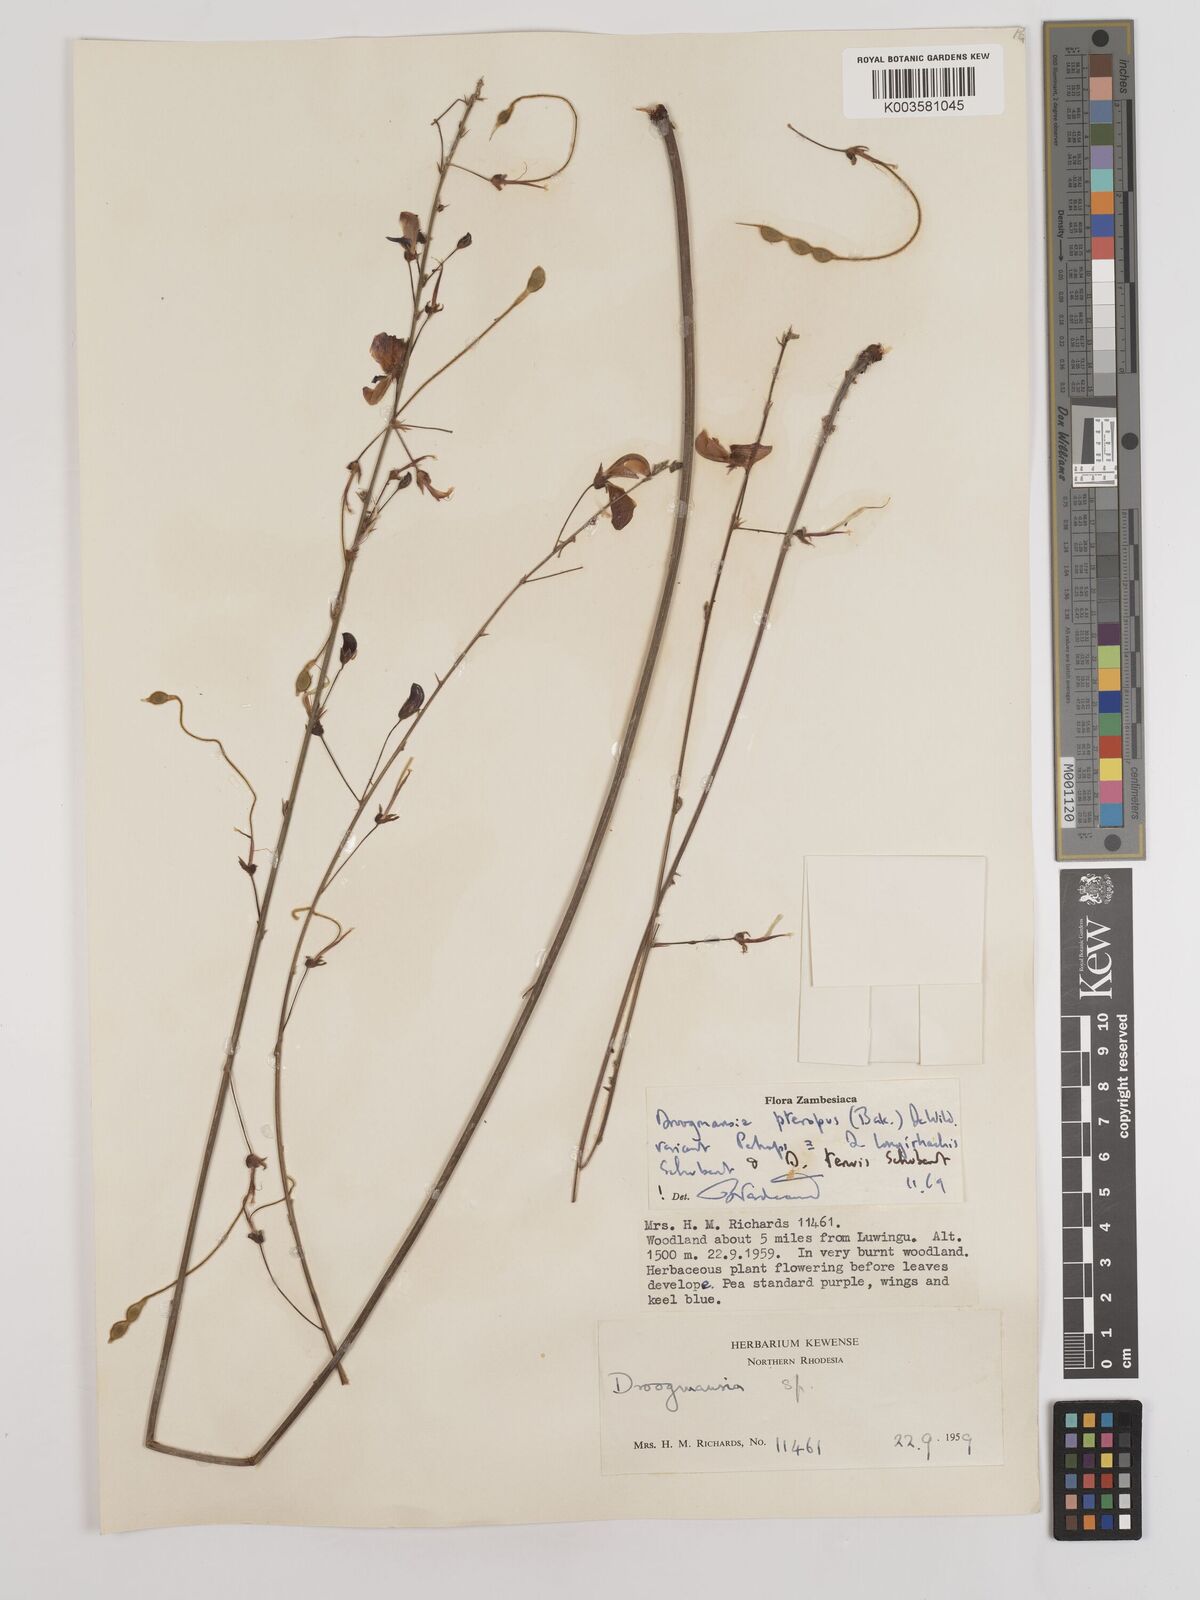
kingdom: Plantae
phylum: Tracheophyta
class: Magnoliopsida
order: Fabales
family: Fabaceae
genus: Droogmansia
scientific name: Droogmansia
